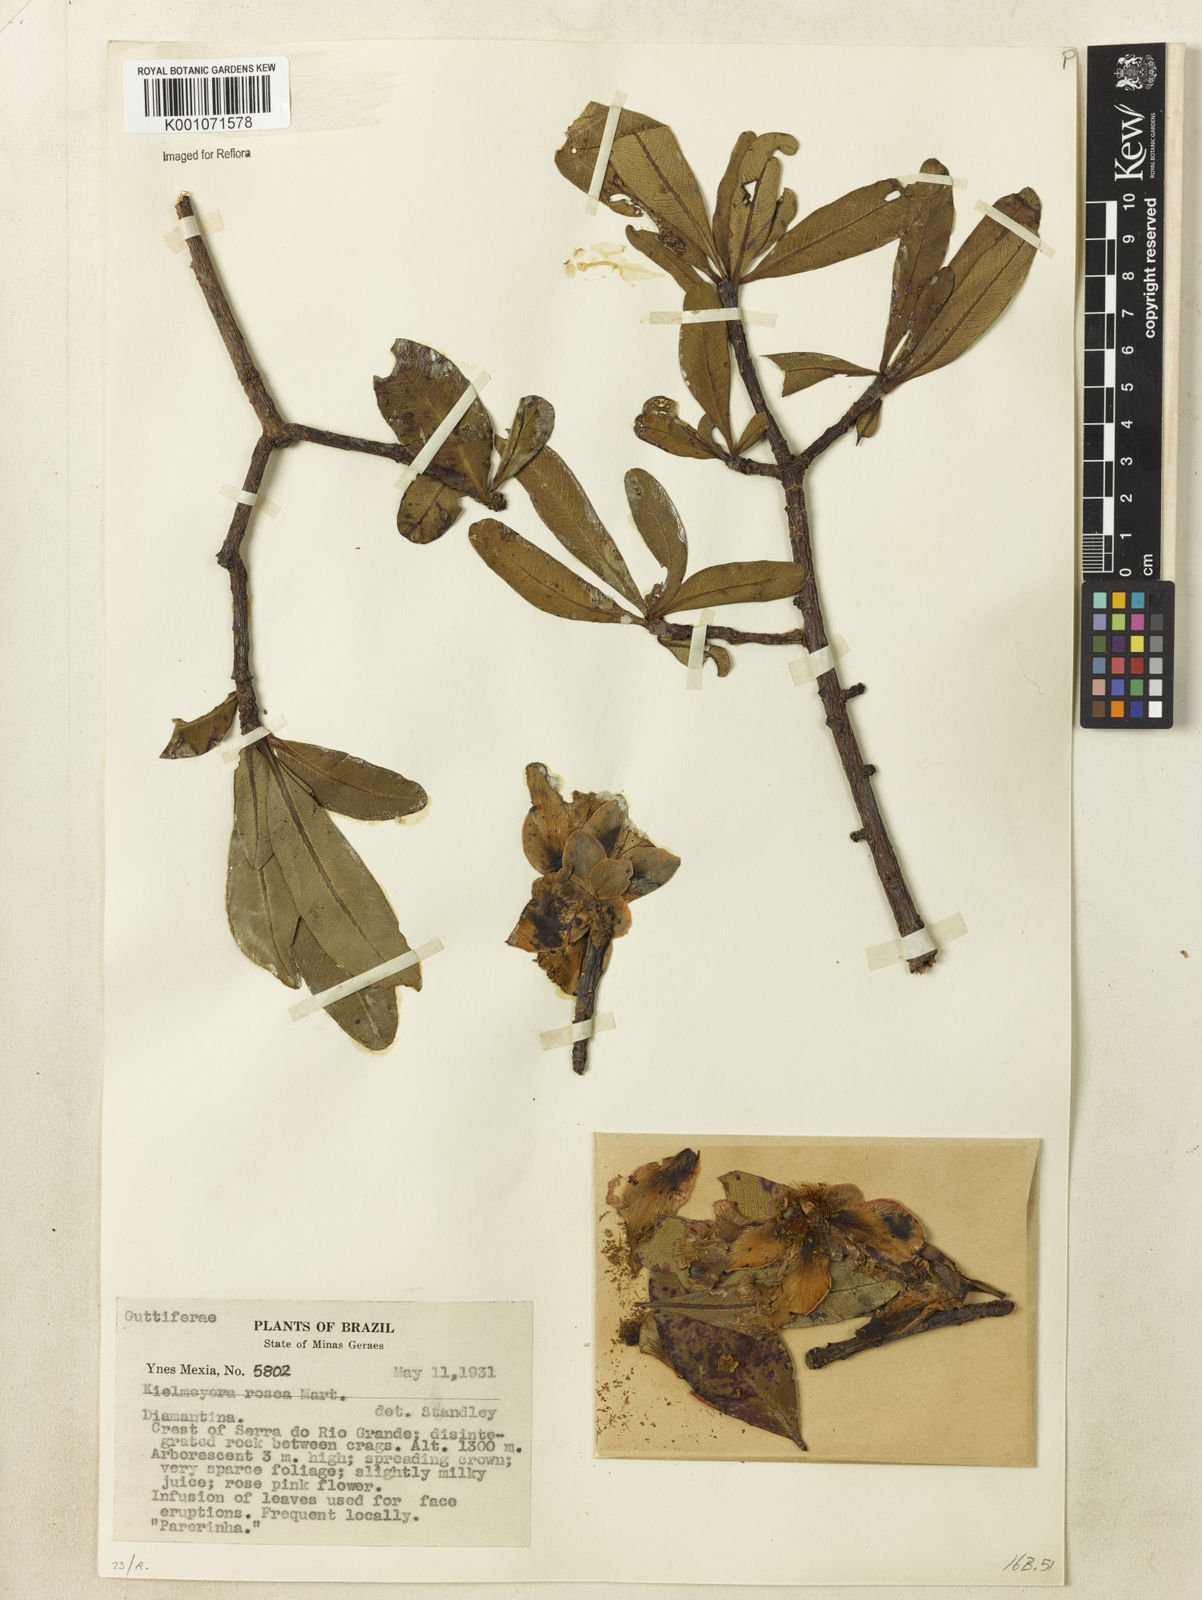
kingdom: Plantae
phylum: Tracheophyta
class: Magnoliopsida
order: Malpighiales
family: Calophyllaceae
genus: Kielmeyera
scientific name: Kielmeyera rosea
